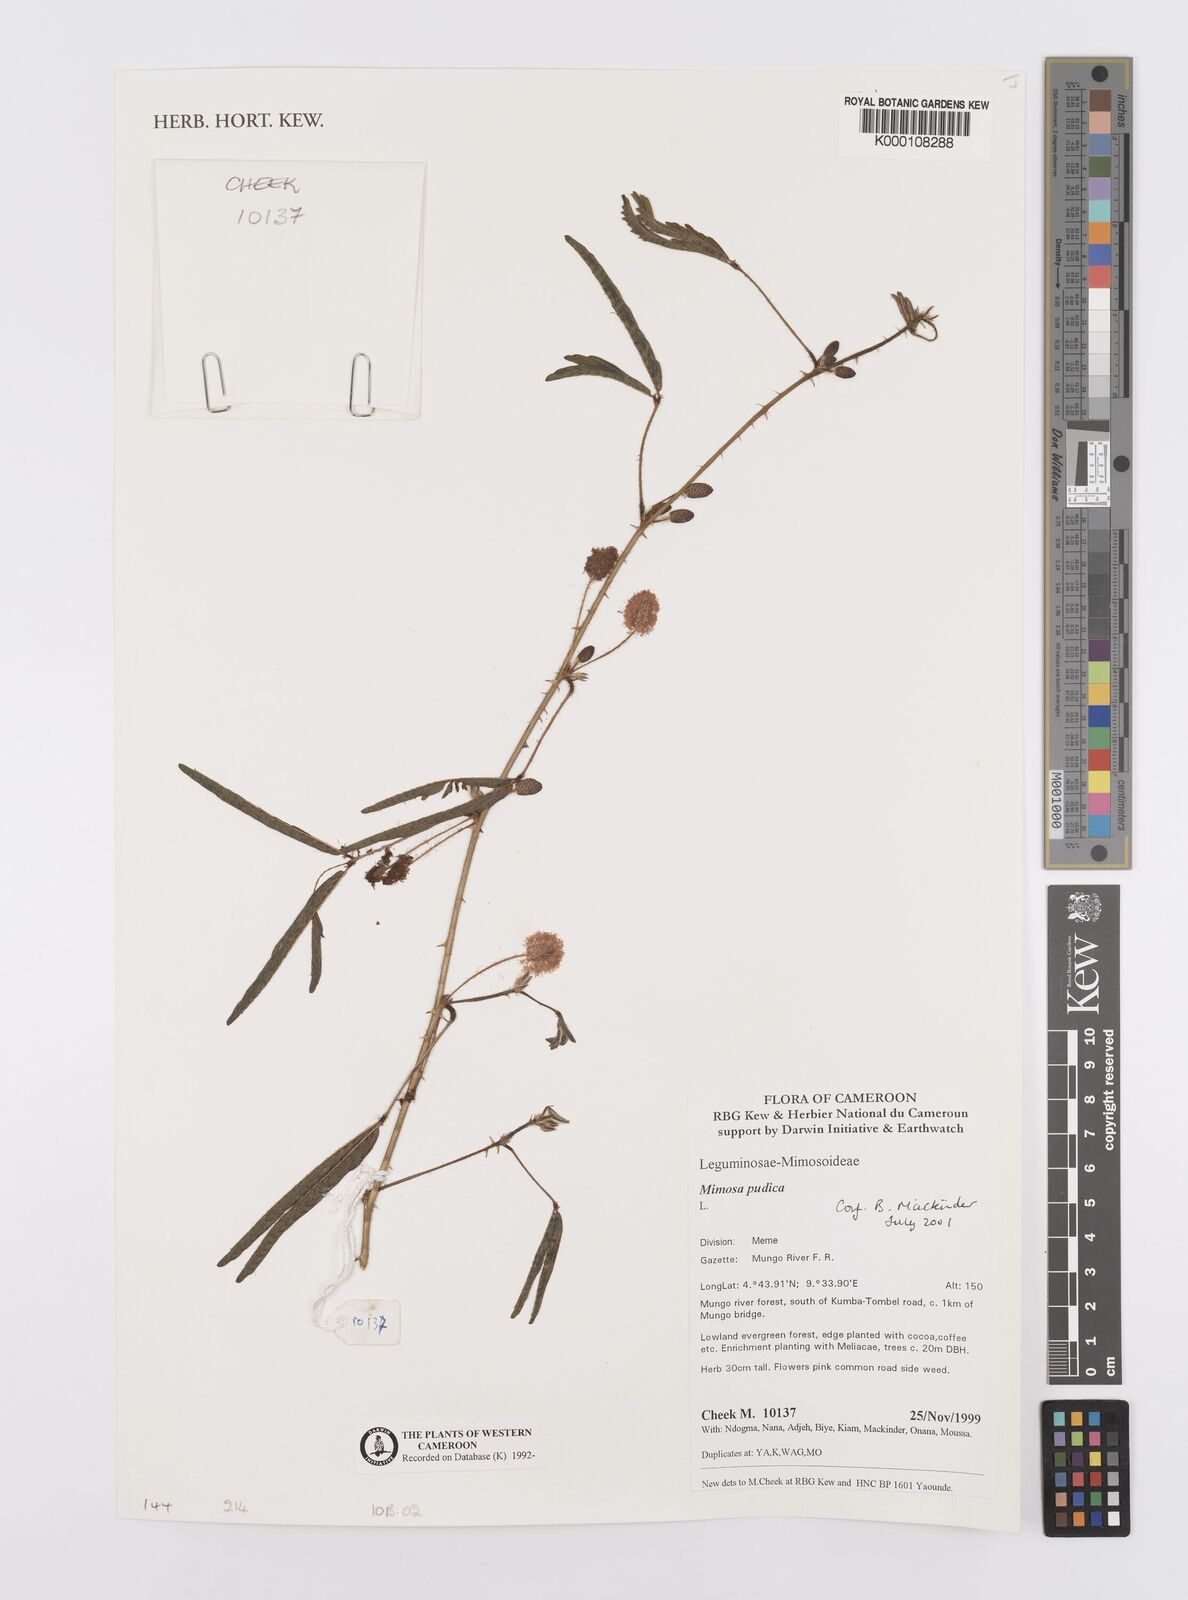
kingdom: Plantae
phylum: Tracheophyta
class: Magnoliopsida
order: Fabales
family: Fabaceae
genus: Mimosa
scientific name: Mimosa pudica
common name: Sensitive plant
